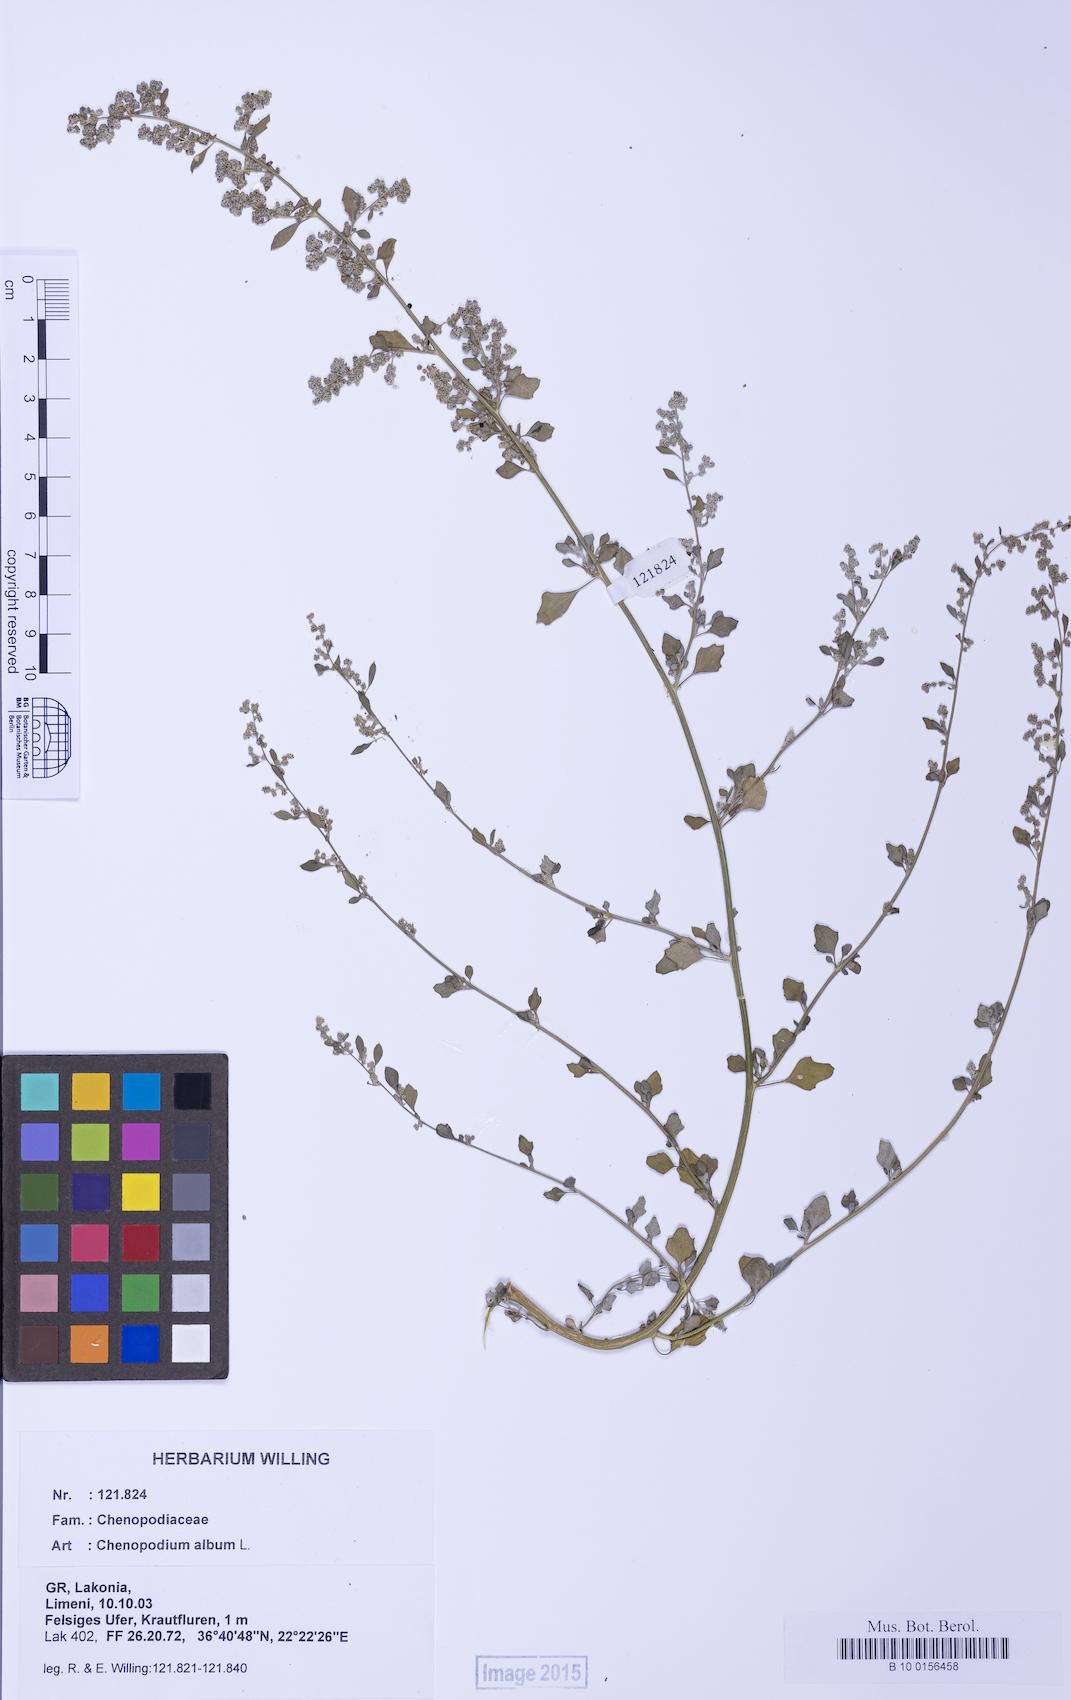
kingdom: Plantae
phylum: Tracheophyta
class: Magnoliopsida
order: Caryophyllales
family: Amaranthaceae
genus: Chenopodium
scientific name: Chenopodium opulifolium
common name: Grey goosefoot
